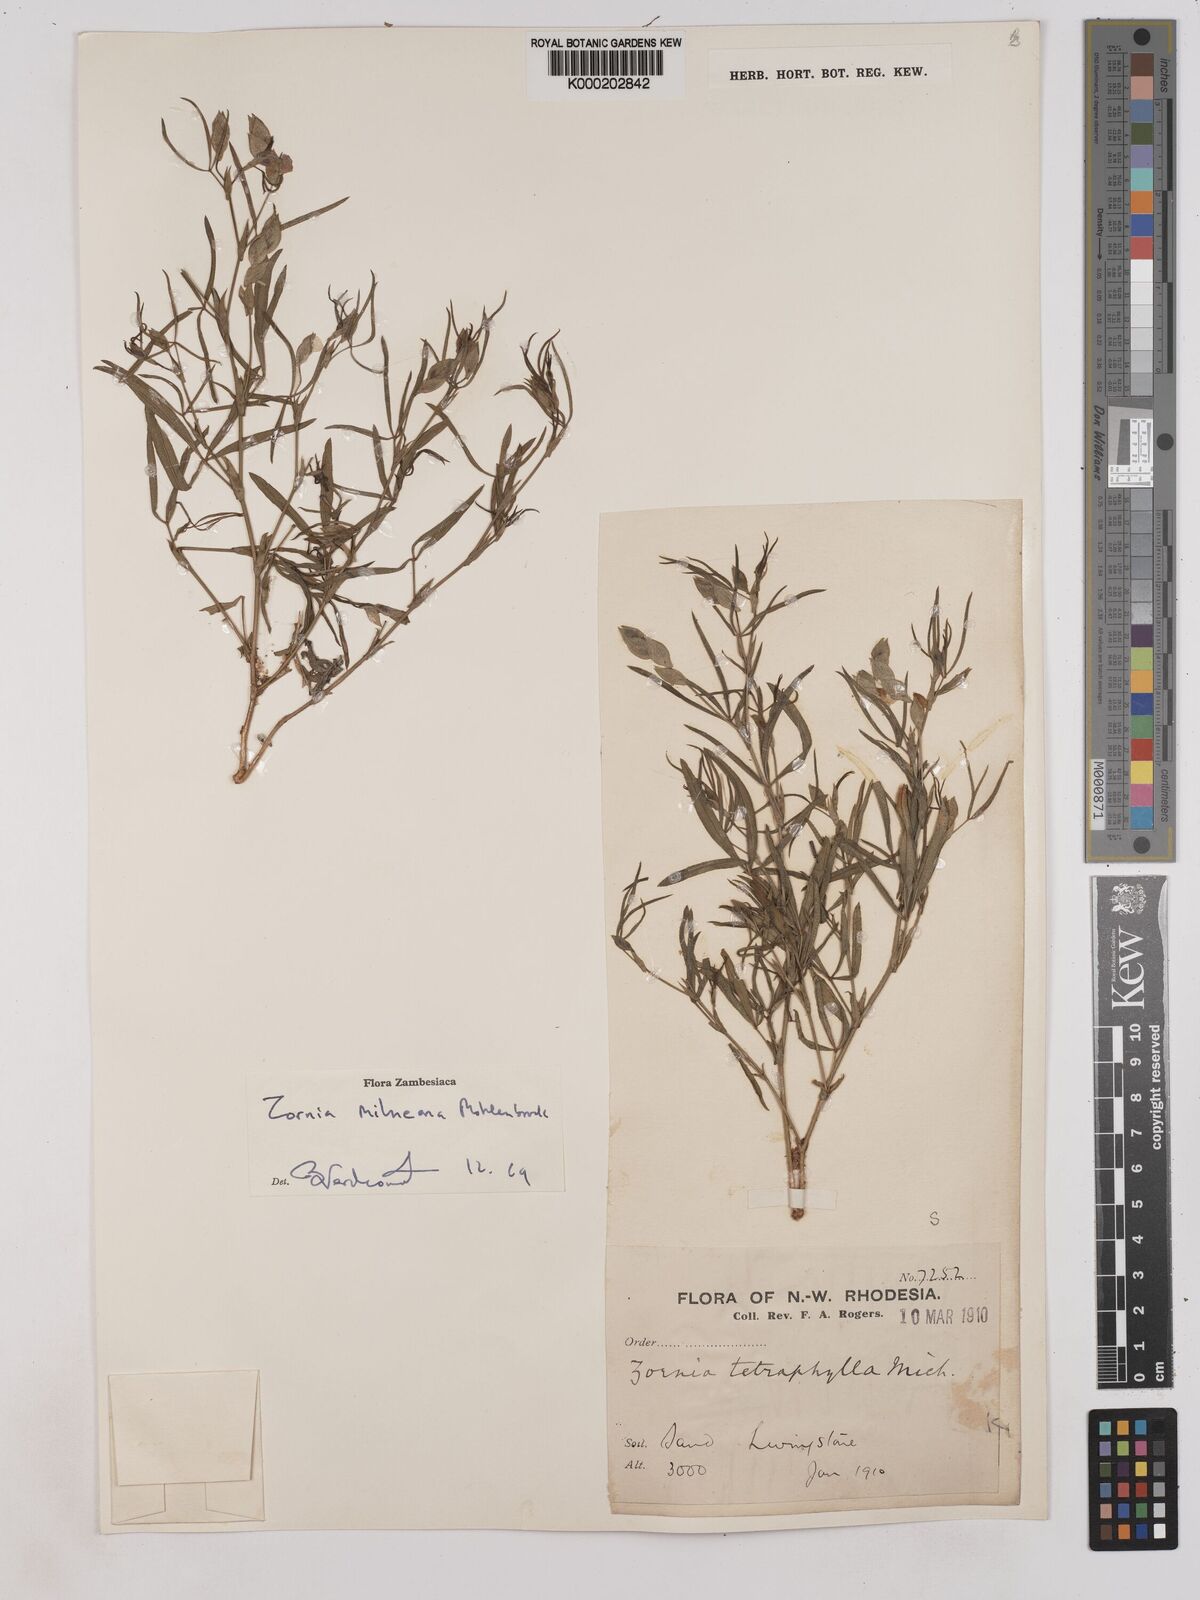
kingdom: Plantae
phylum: Tracheophyta
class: Magnoliopsida
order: Fabales
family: Fabaceae
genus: Zornia
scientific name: Zornia milneana
